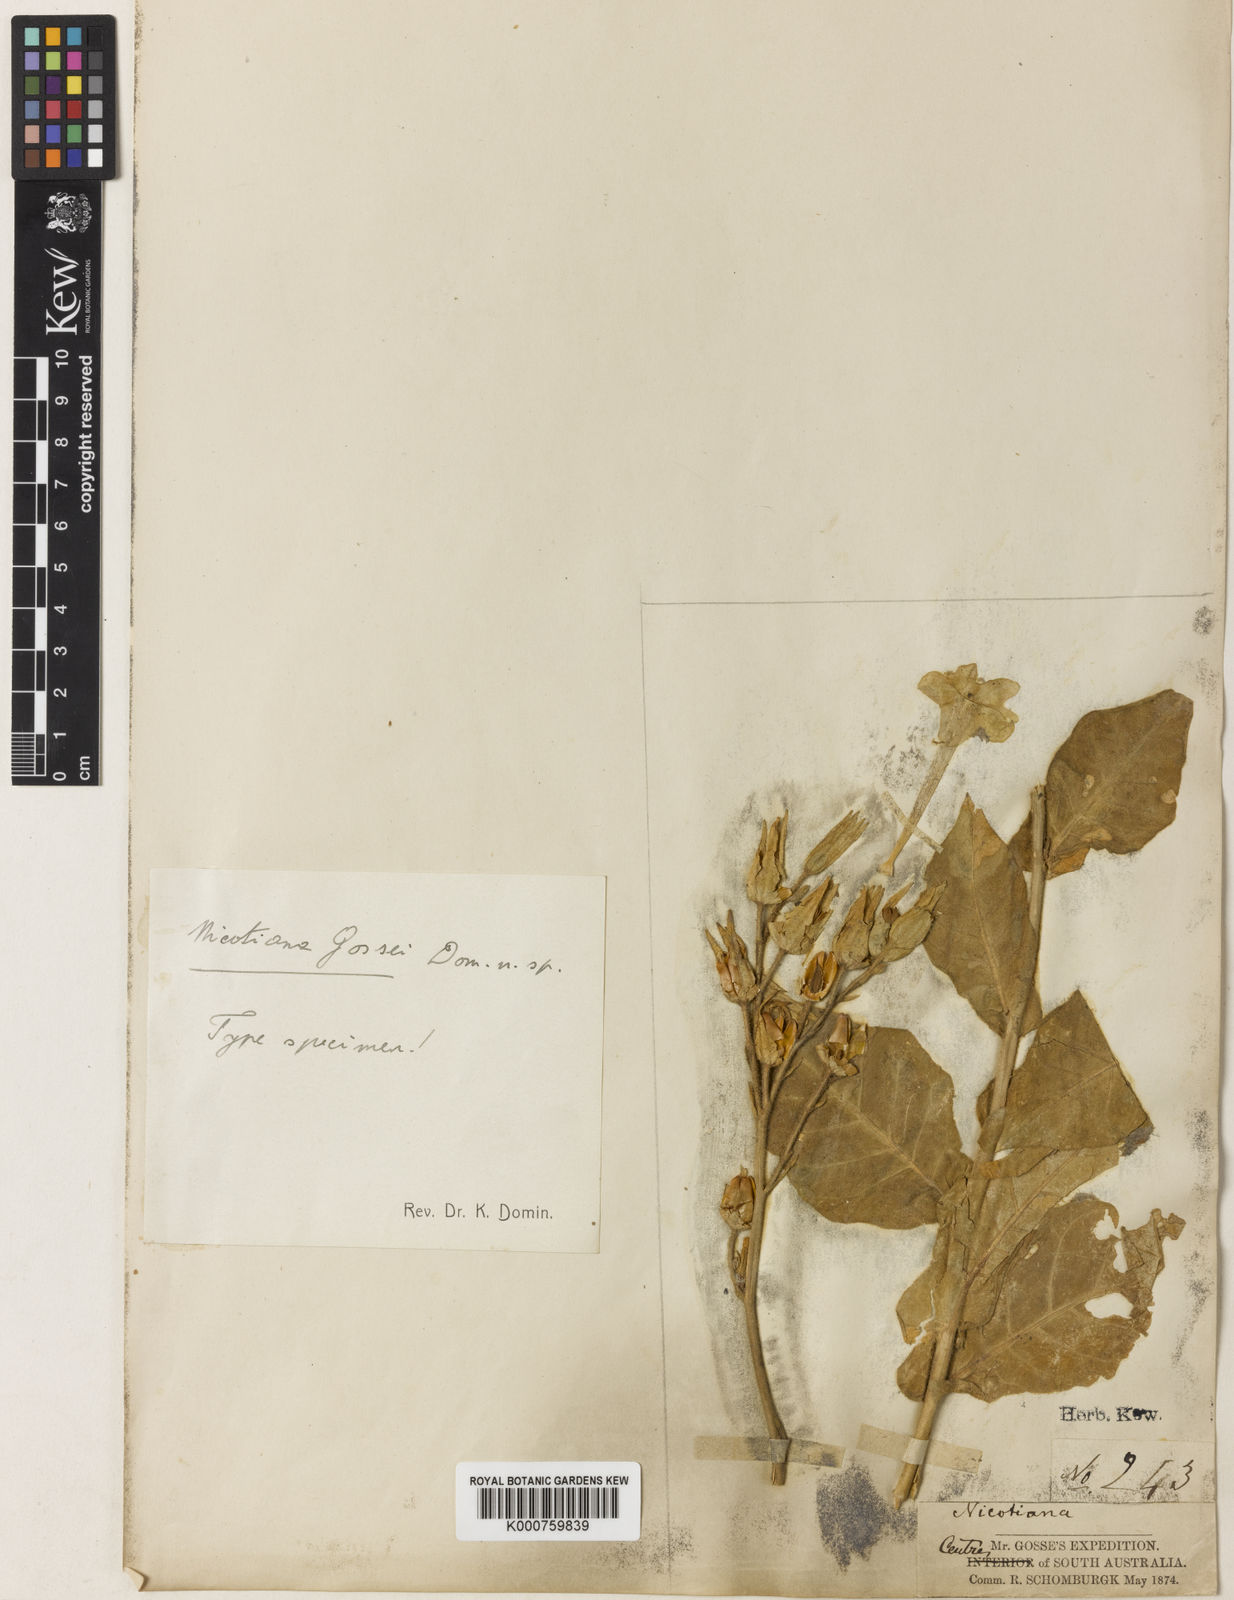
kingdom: Plantae
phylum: Tracheophyta
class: Magnoliopsida
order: Solanales
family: Solanaceae
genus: Nicotiana
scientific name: Nicotiana gossei
